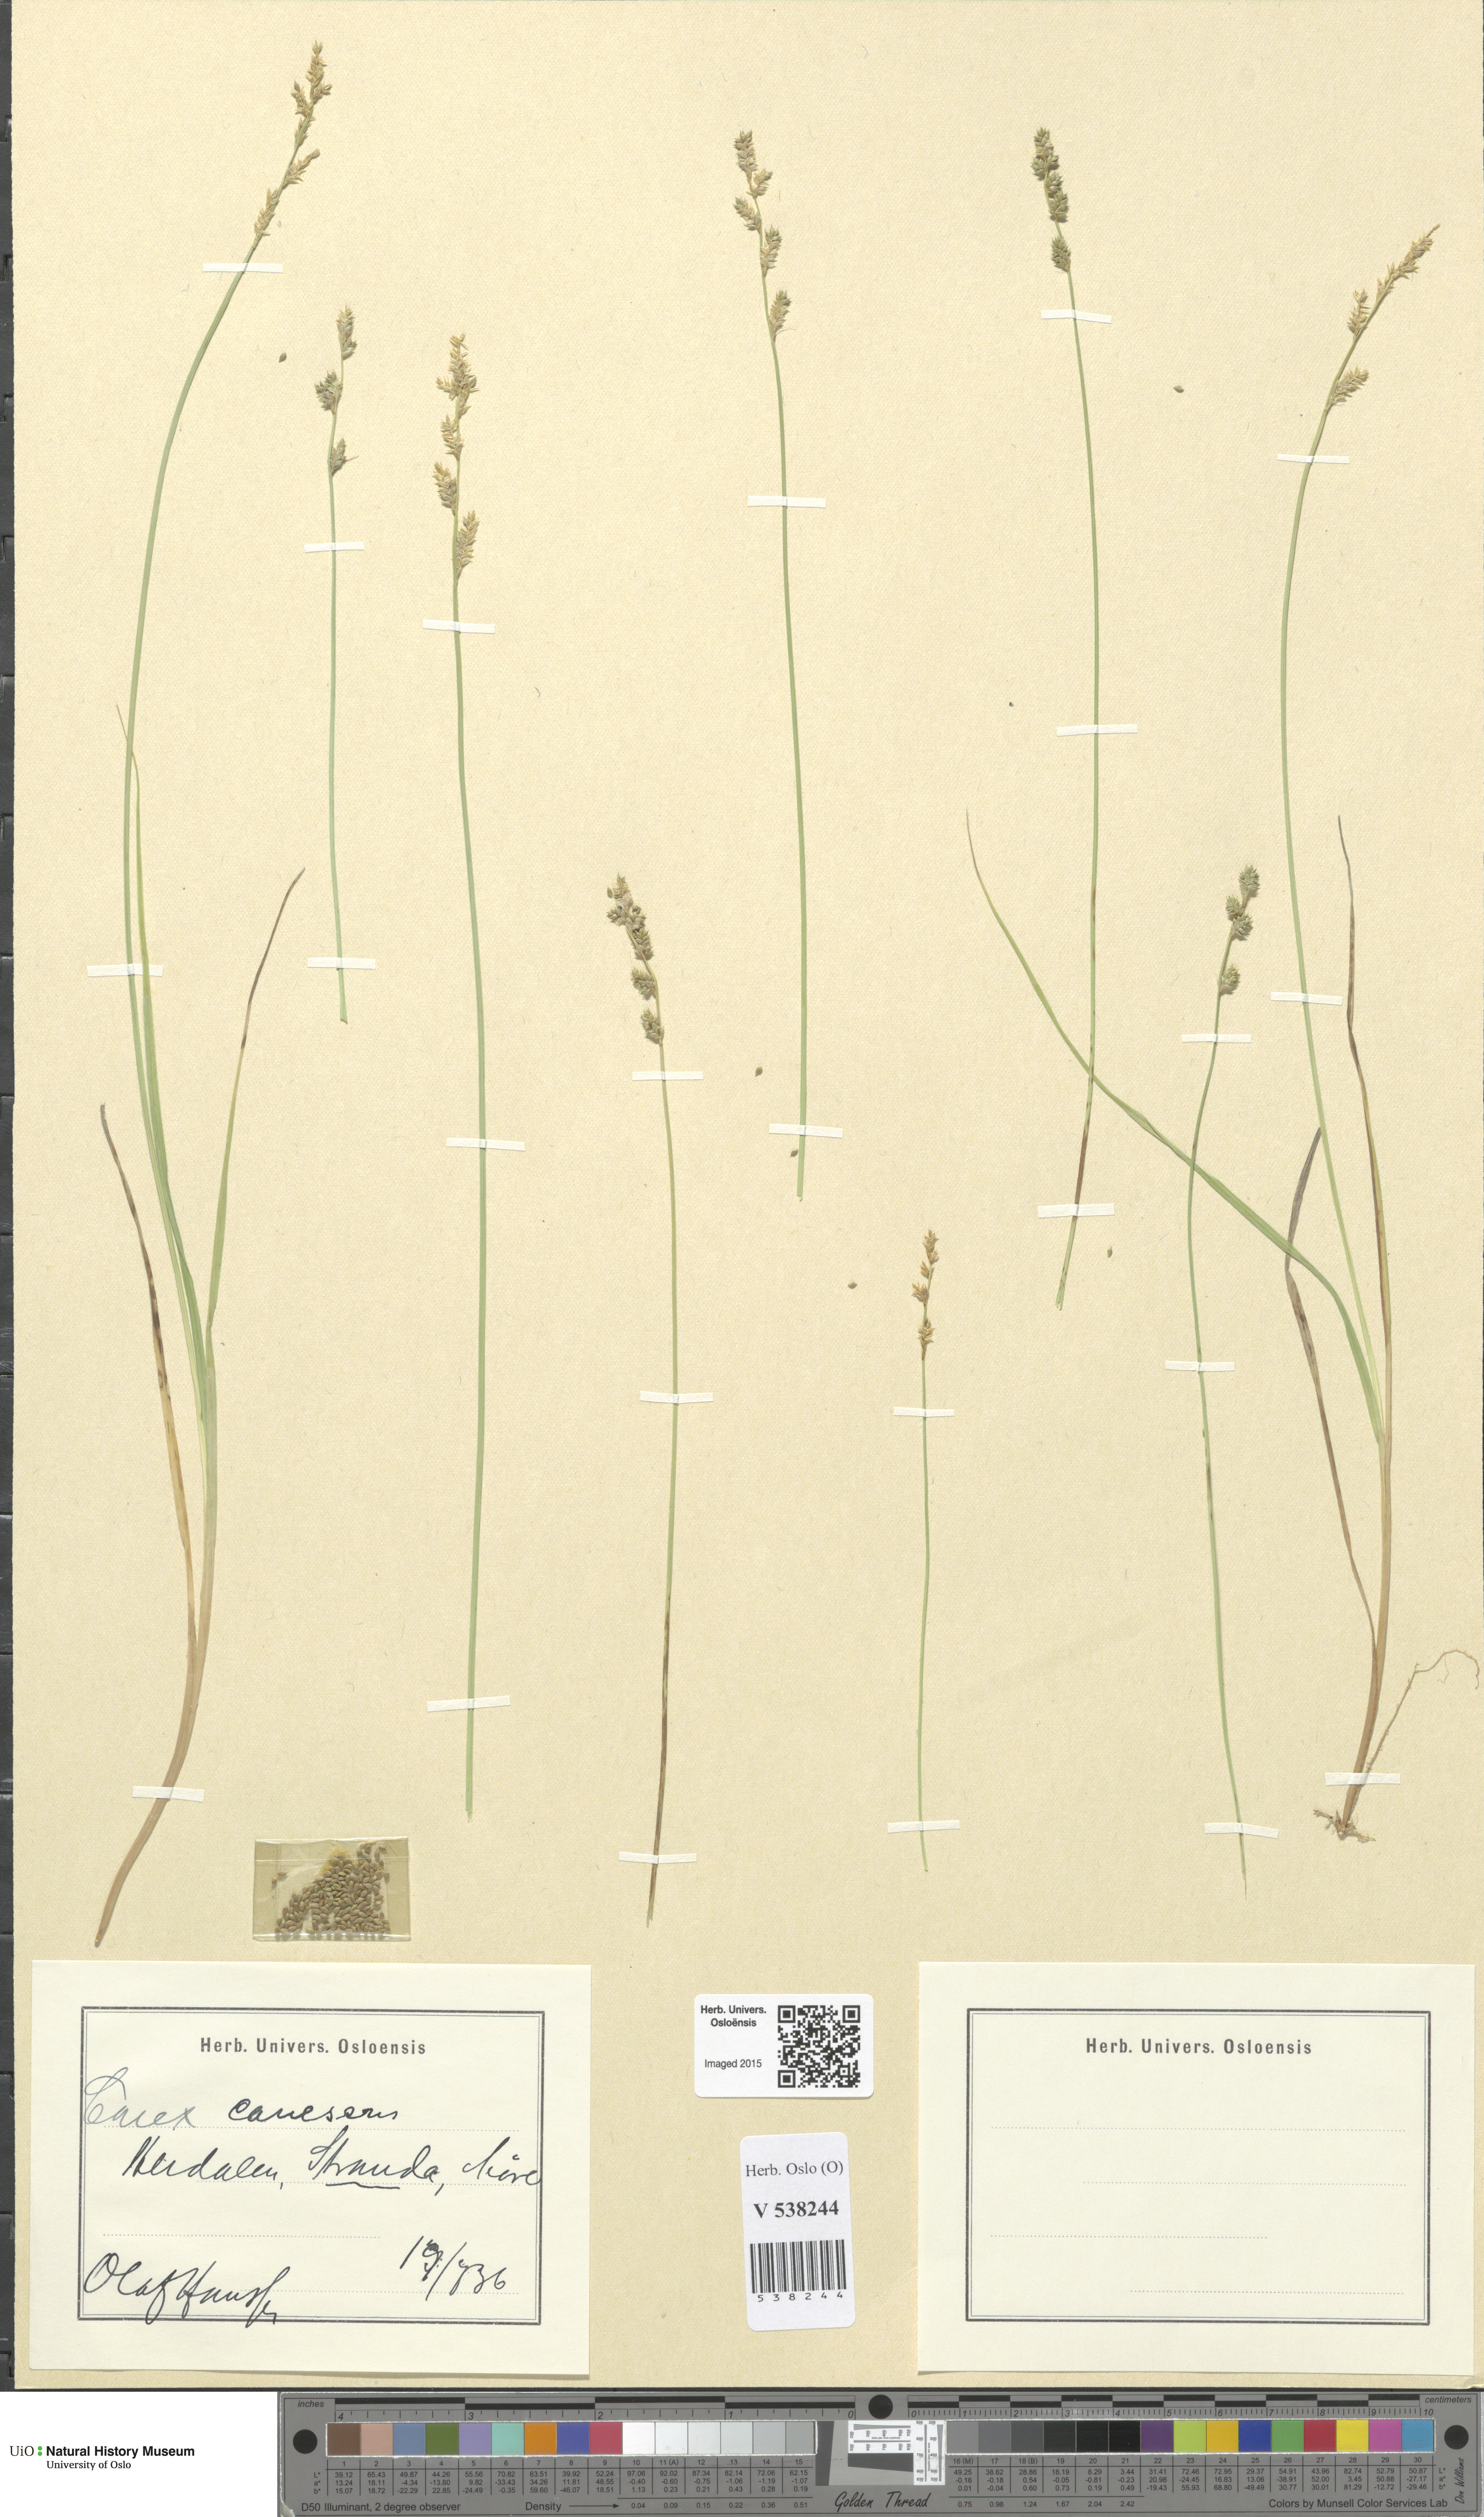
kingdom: Plantae
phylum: Tracheophyta
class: Liliopsida
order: Poales
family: Cyperaceae
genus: Carex
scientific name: Carex canescens
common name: White sedge
